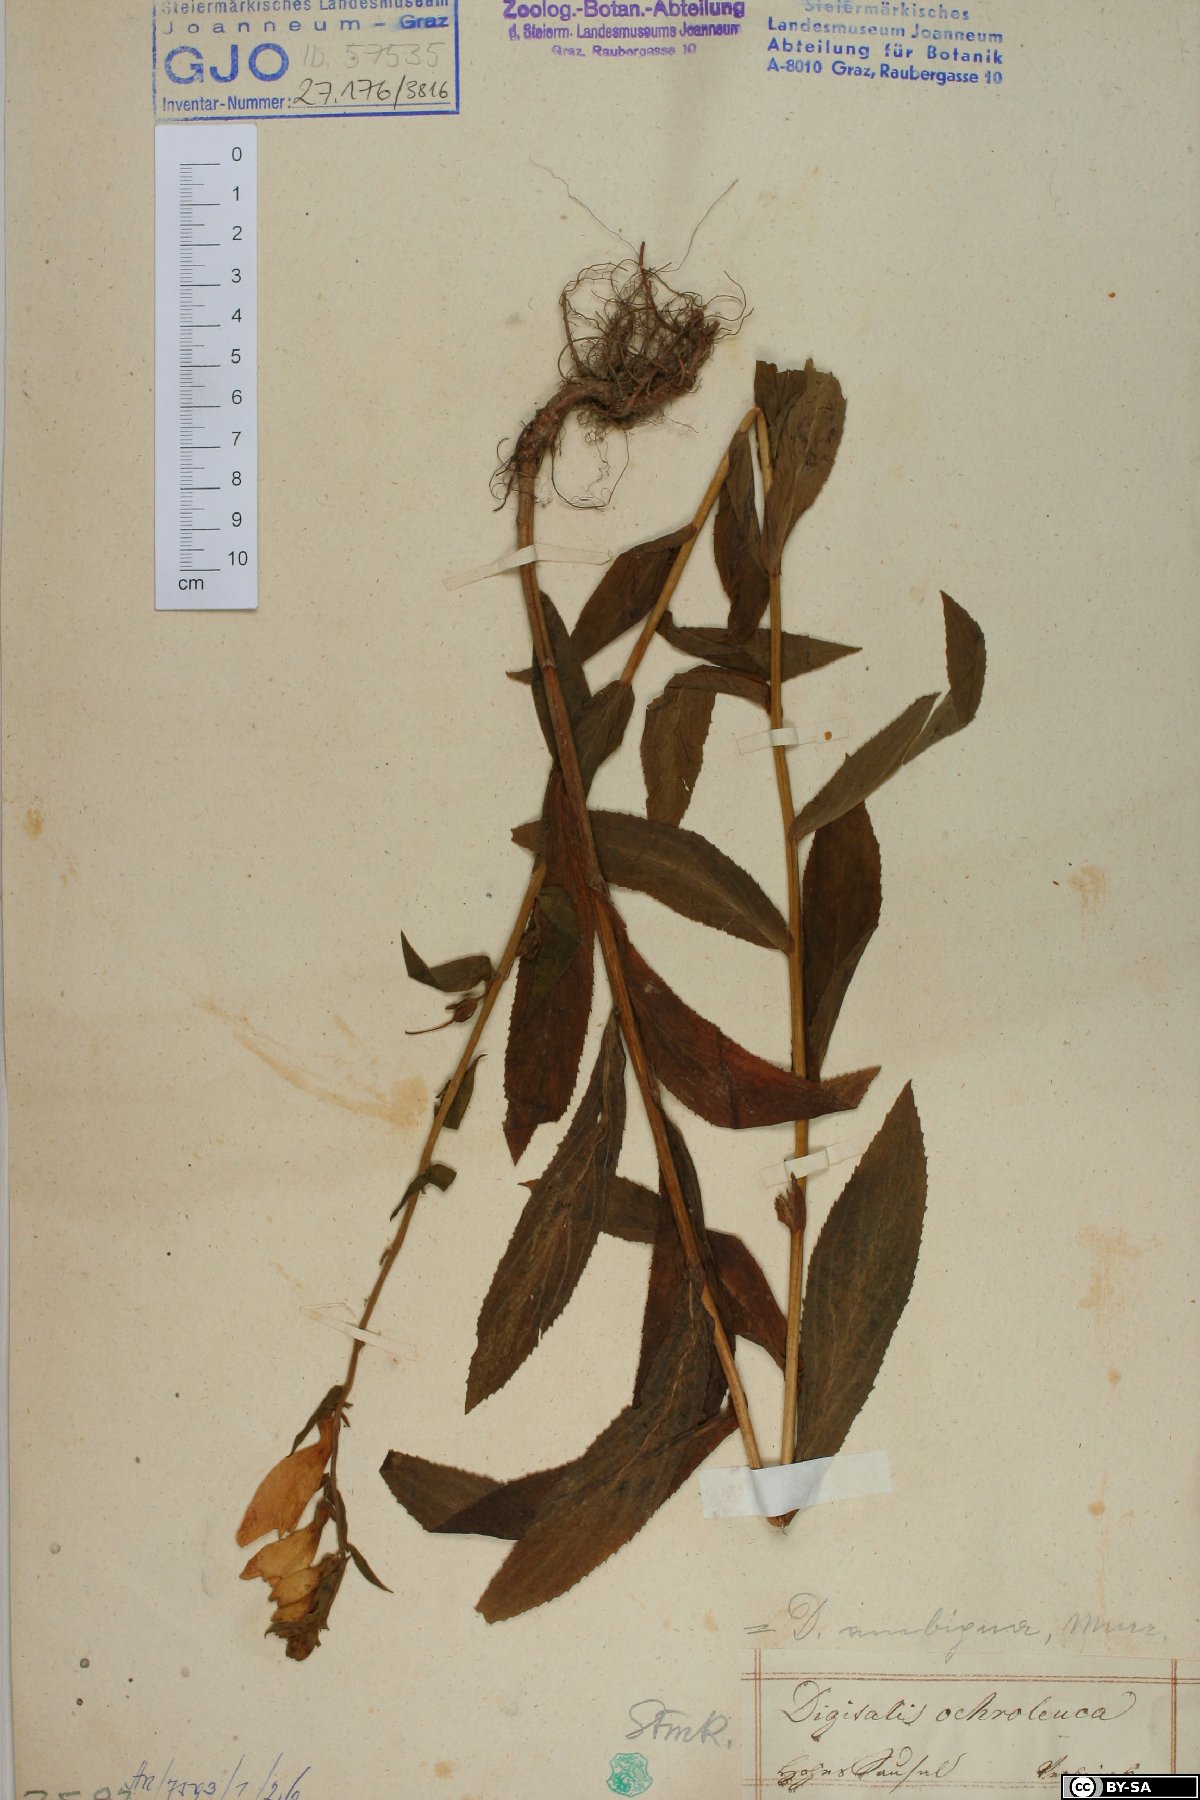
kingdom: Plantae
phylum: Tracheophyta
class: Magnoliopsida
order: Lamiales
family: Plantaginaceae
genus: Digitalis
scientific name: Digitalis grandiflora
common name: Yellow foxglove
